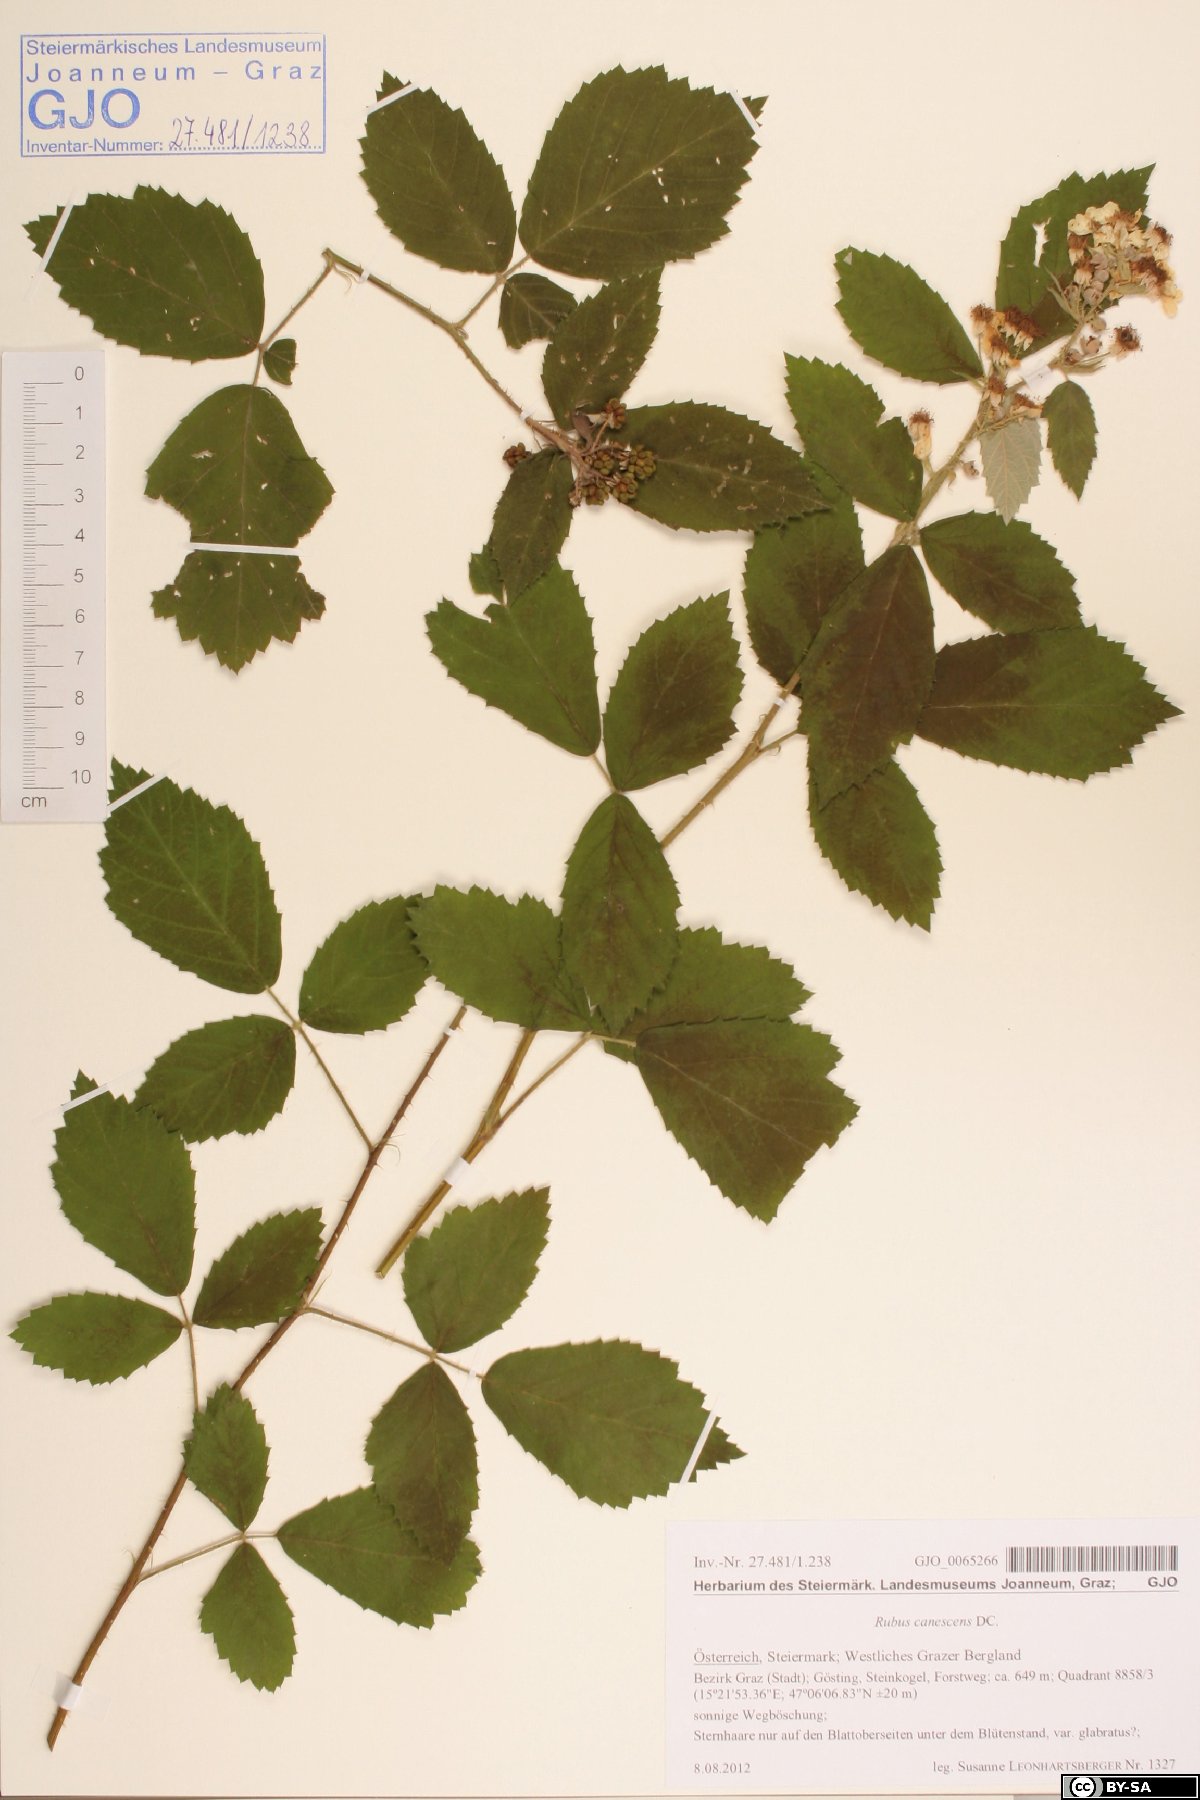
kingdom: Plantae
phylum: Tracheophyta
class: Magnoliopsida
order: Rosales
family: Rosaceae
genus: Rubus
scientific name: Rubus canescens
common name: Wooly blackberry
